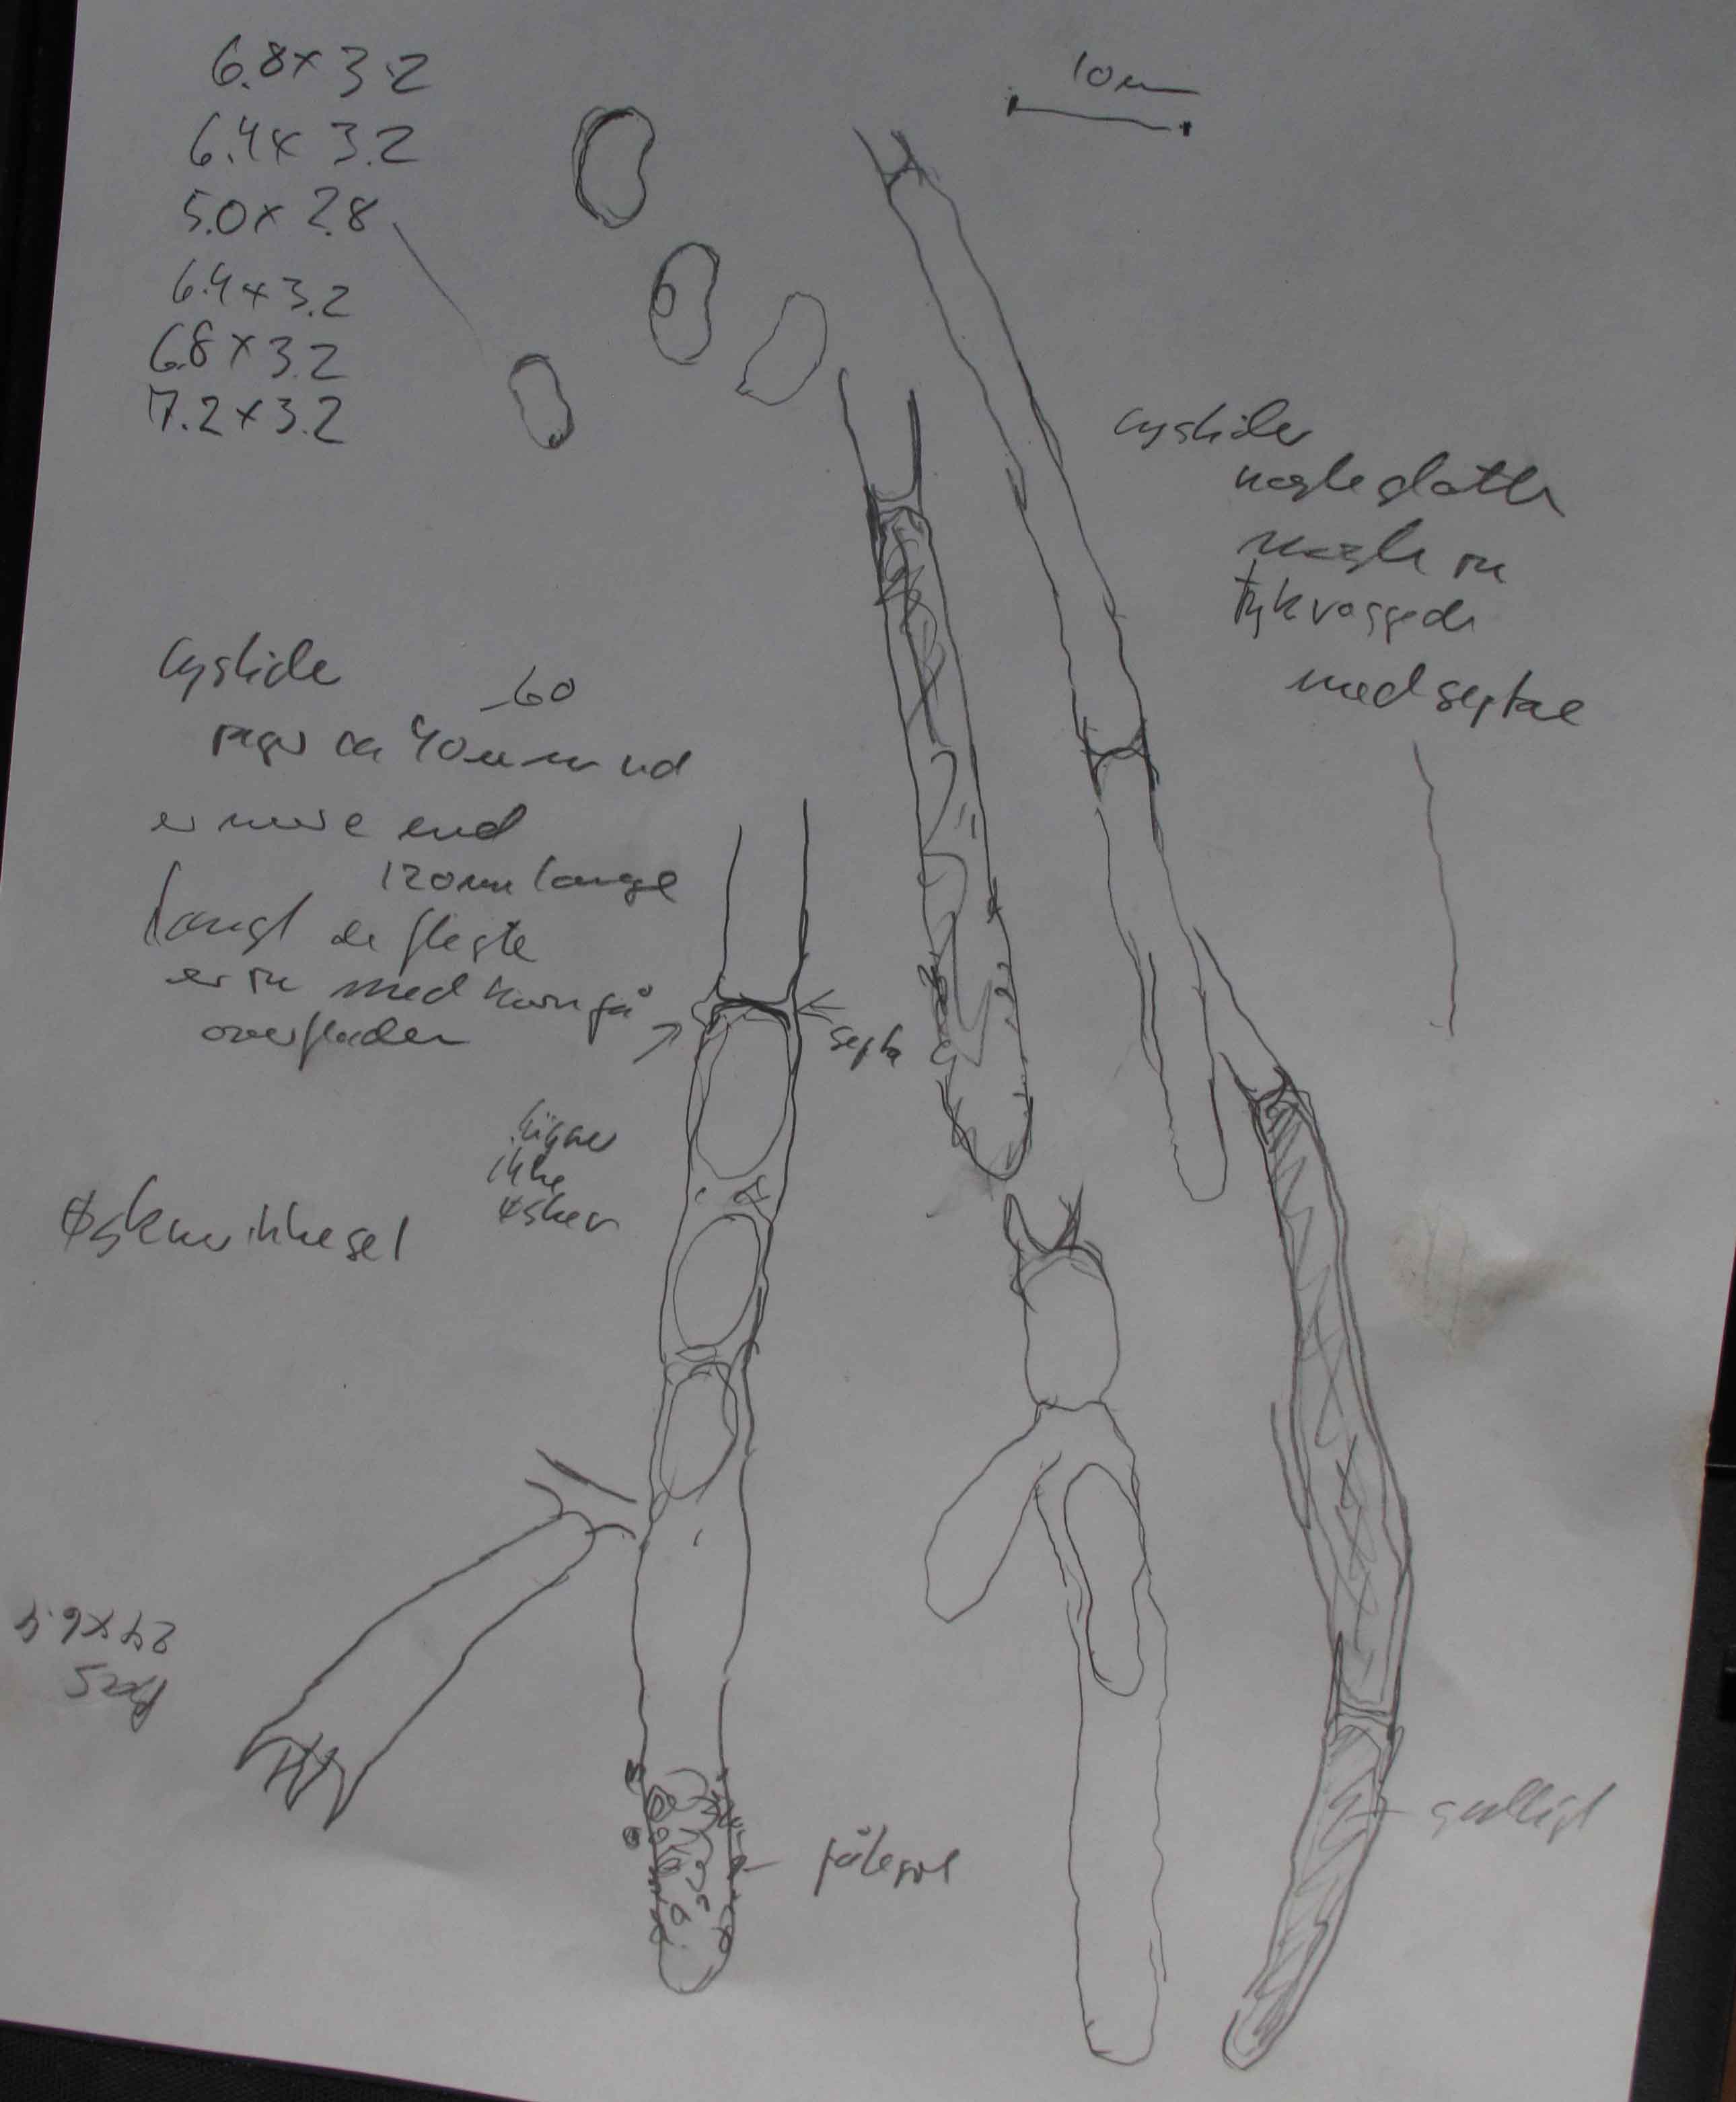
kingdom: Fungi
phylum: Basidiomycota
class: Agaricomycetes
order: Polyporales
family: Irpicaceae
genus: Ceriporia
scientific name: Ceriporia griseoviolascens
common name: gråviolet voksporesvamp
